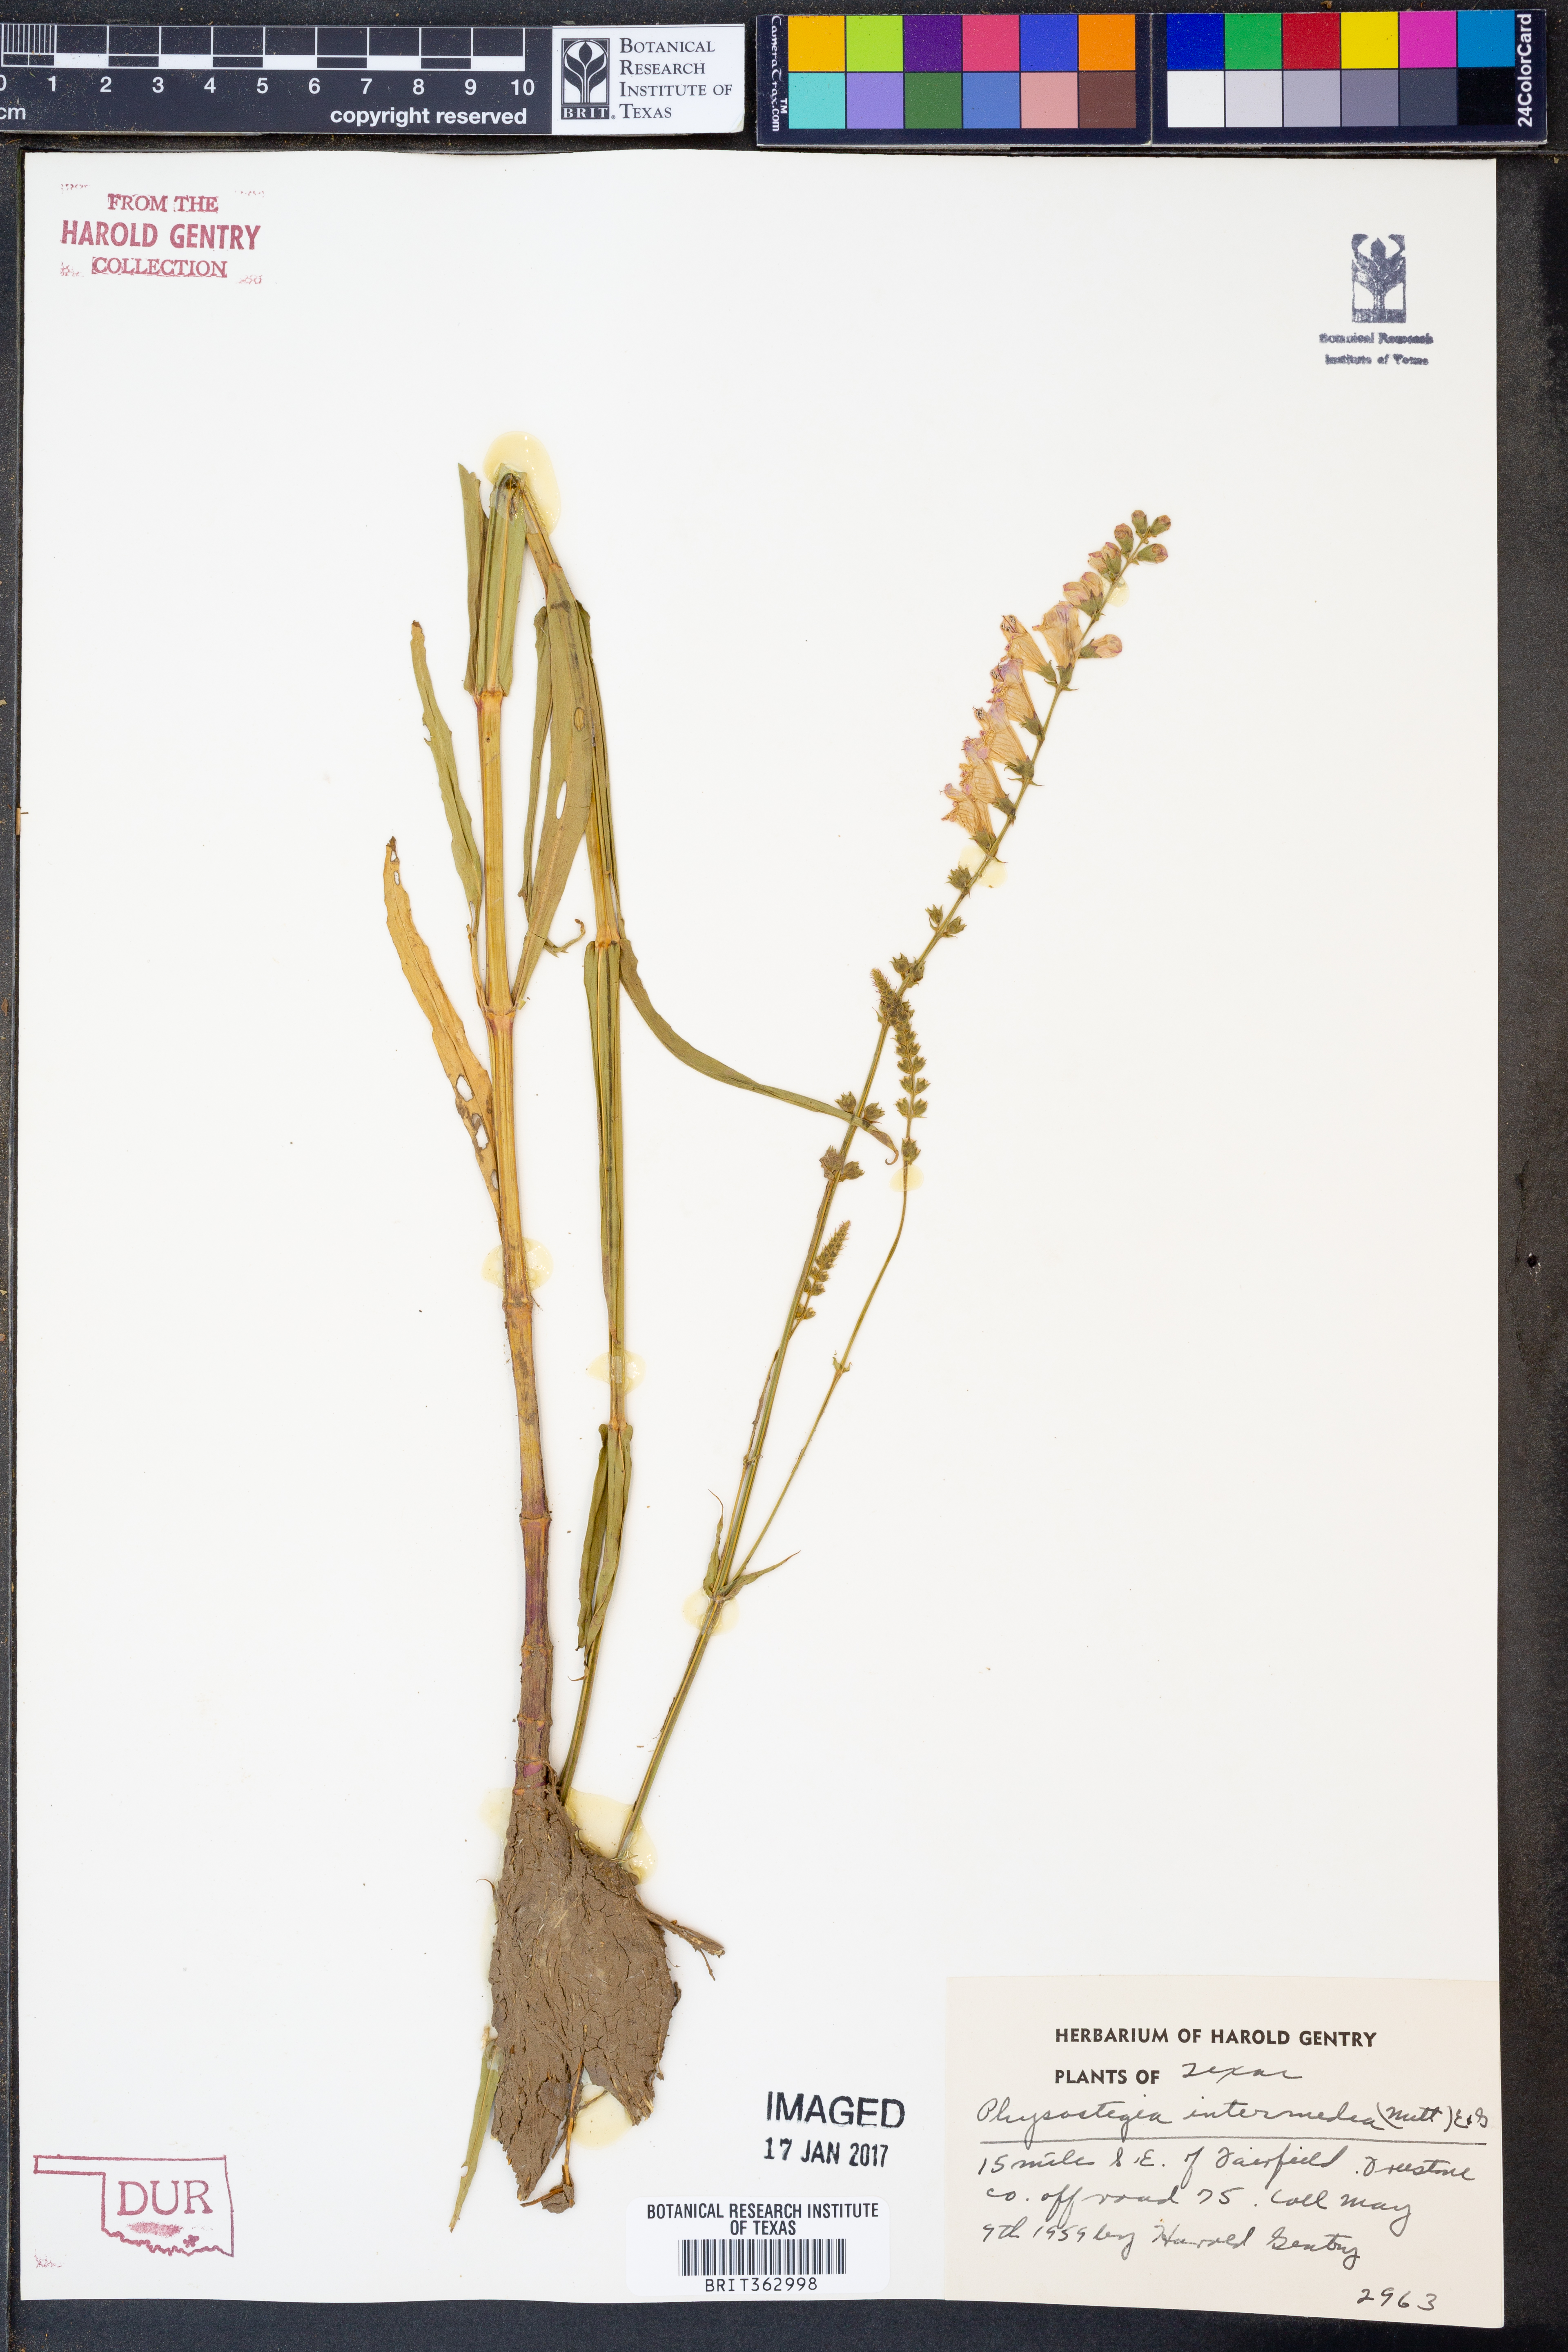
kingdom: Plantae
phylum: Tracheophyta
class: Magnoliopsida
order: Lamiales
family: Lamiaceae
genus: Physostegia
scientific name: Physostegia intermedia
